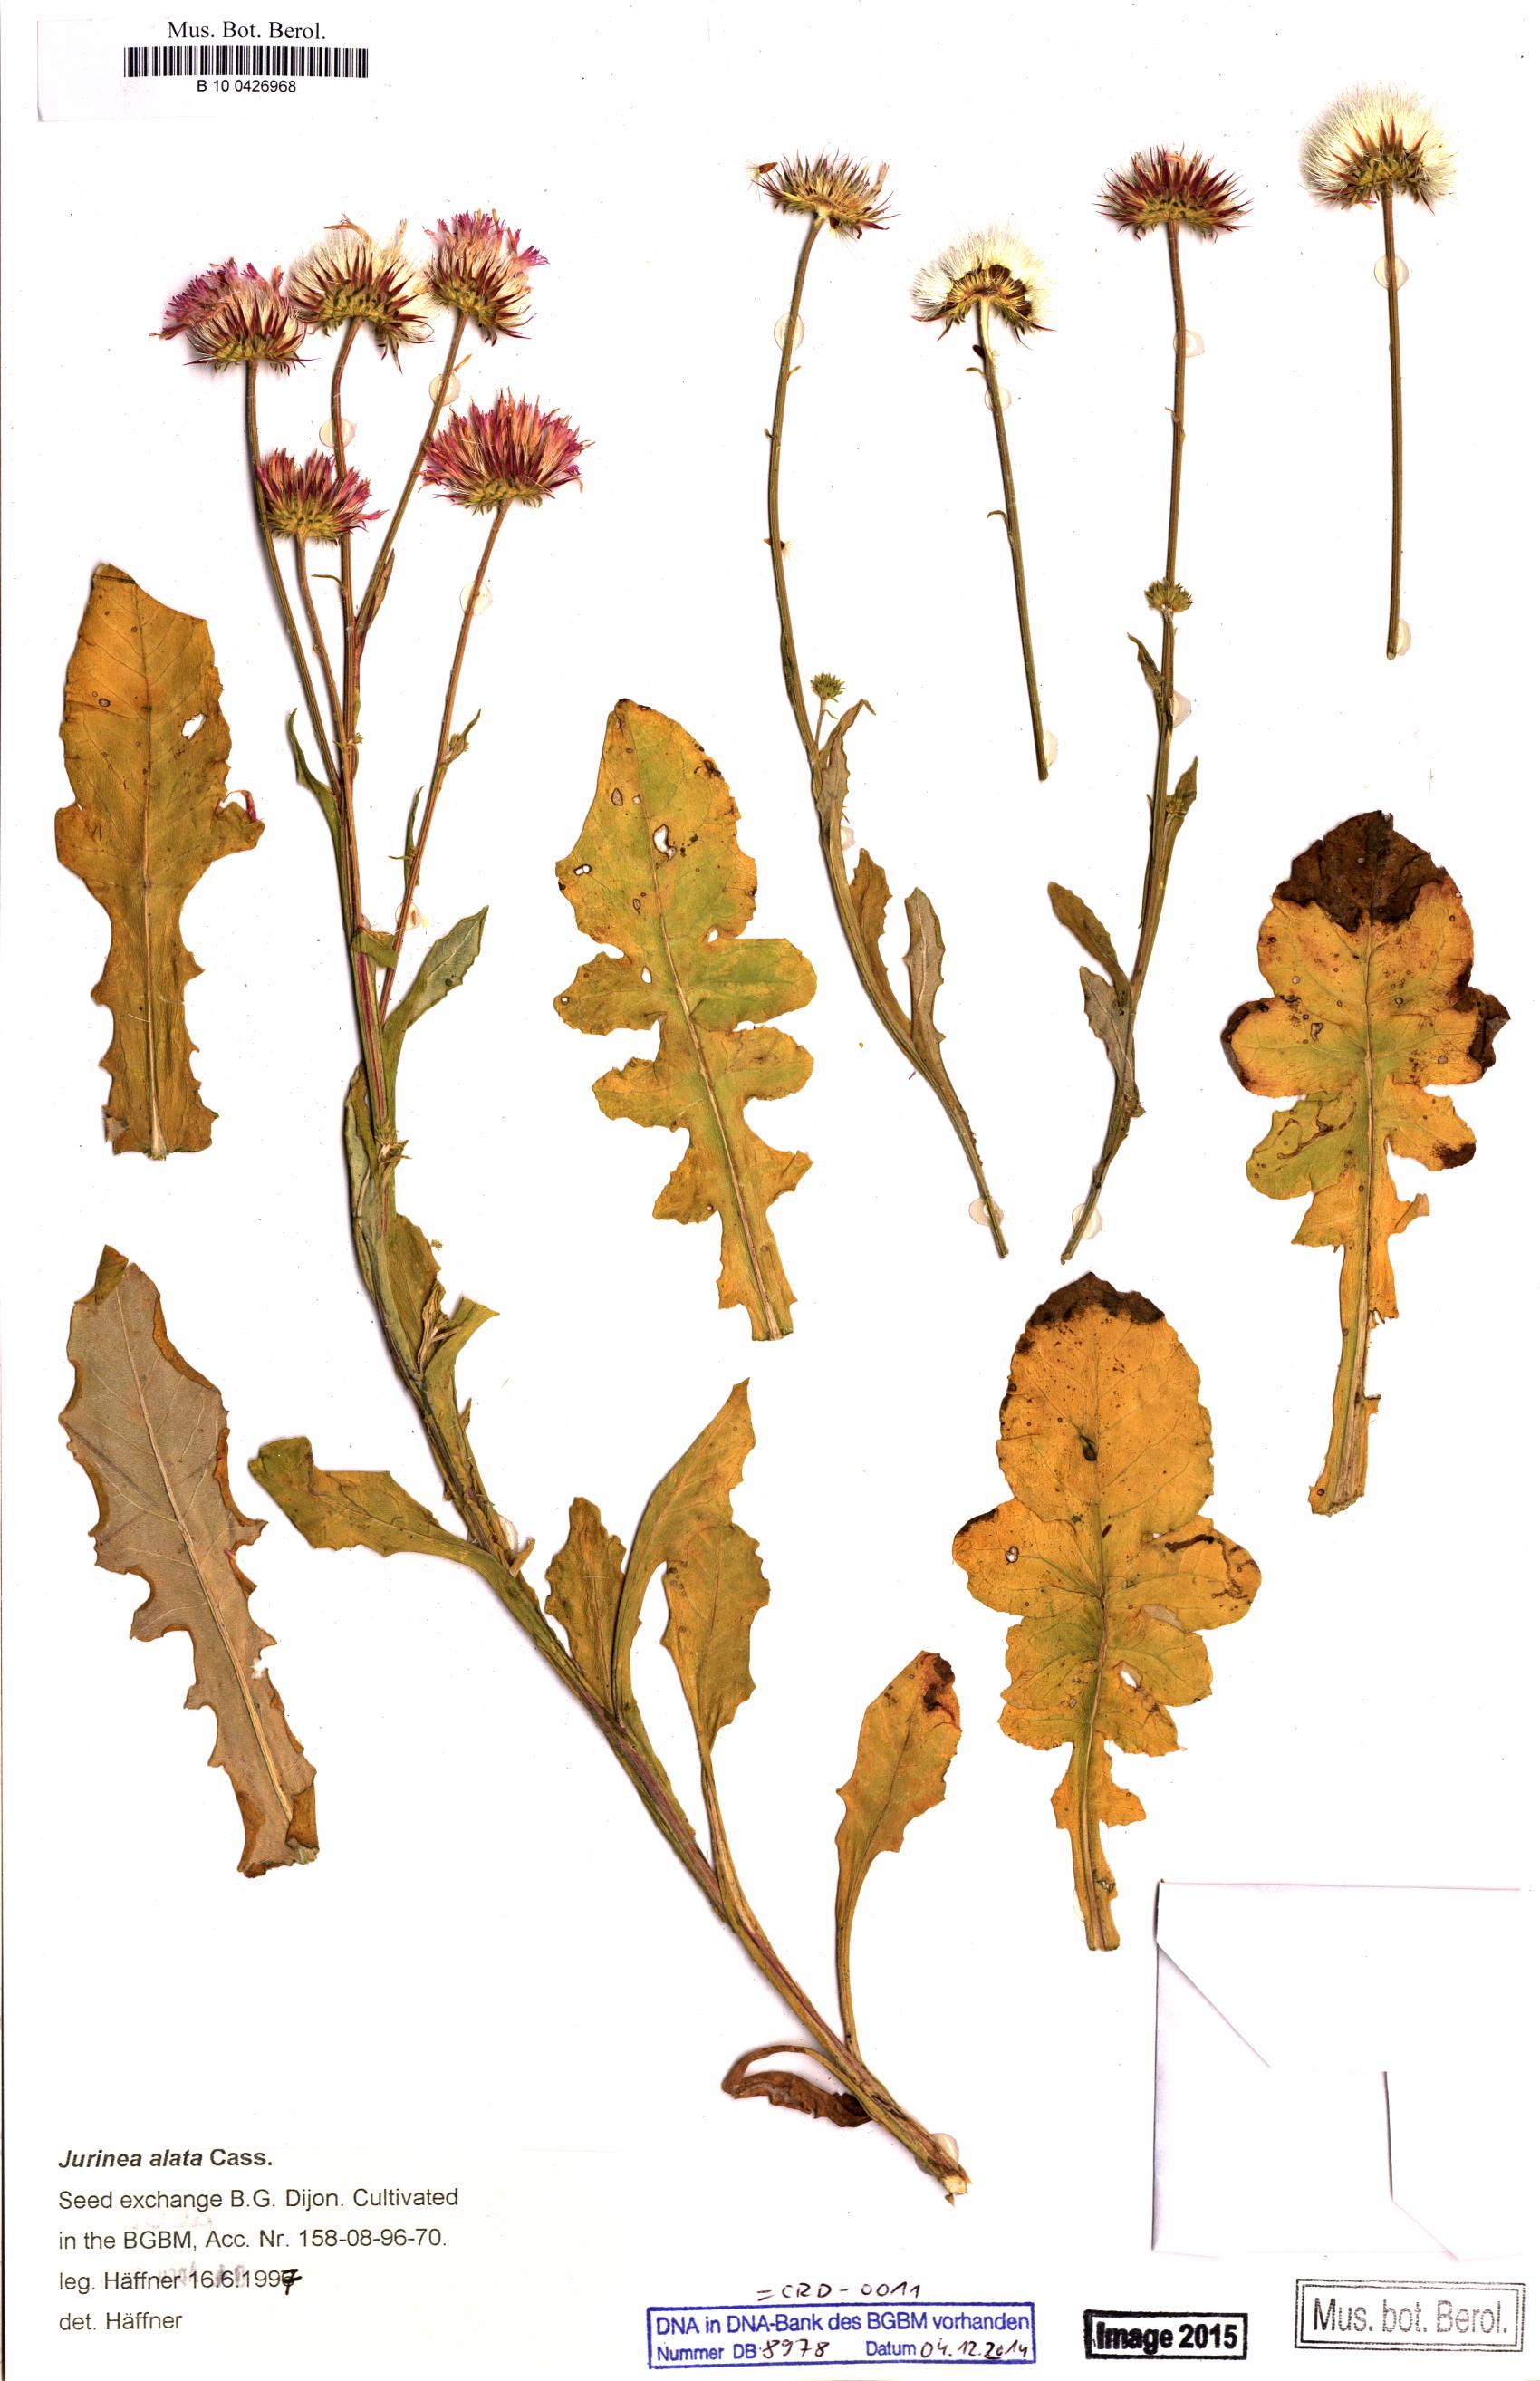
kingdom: Plantae
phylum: Tracheophyta
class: Magnoliopsida
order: Asterales
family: Asteraceae
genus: Jurinea
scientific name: Jurinea alata
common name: Winged jurinea
